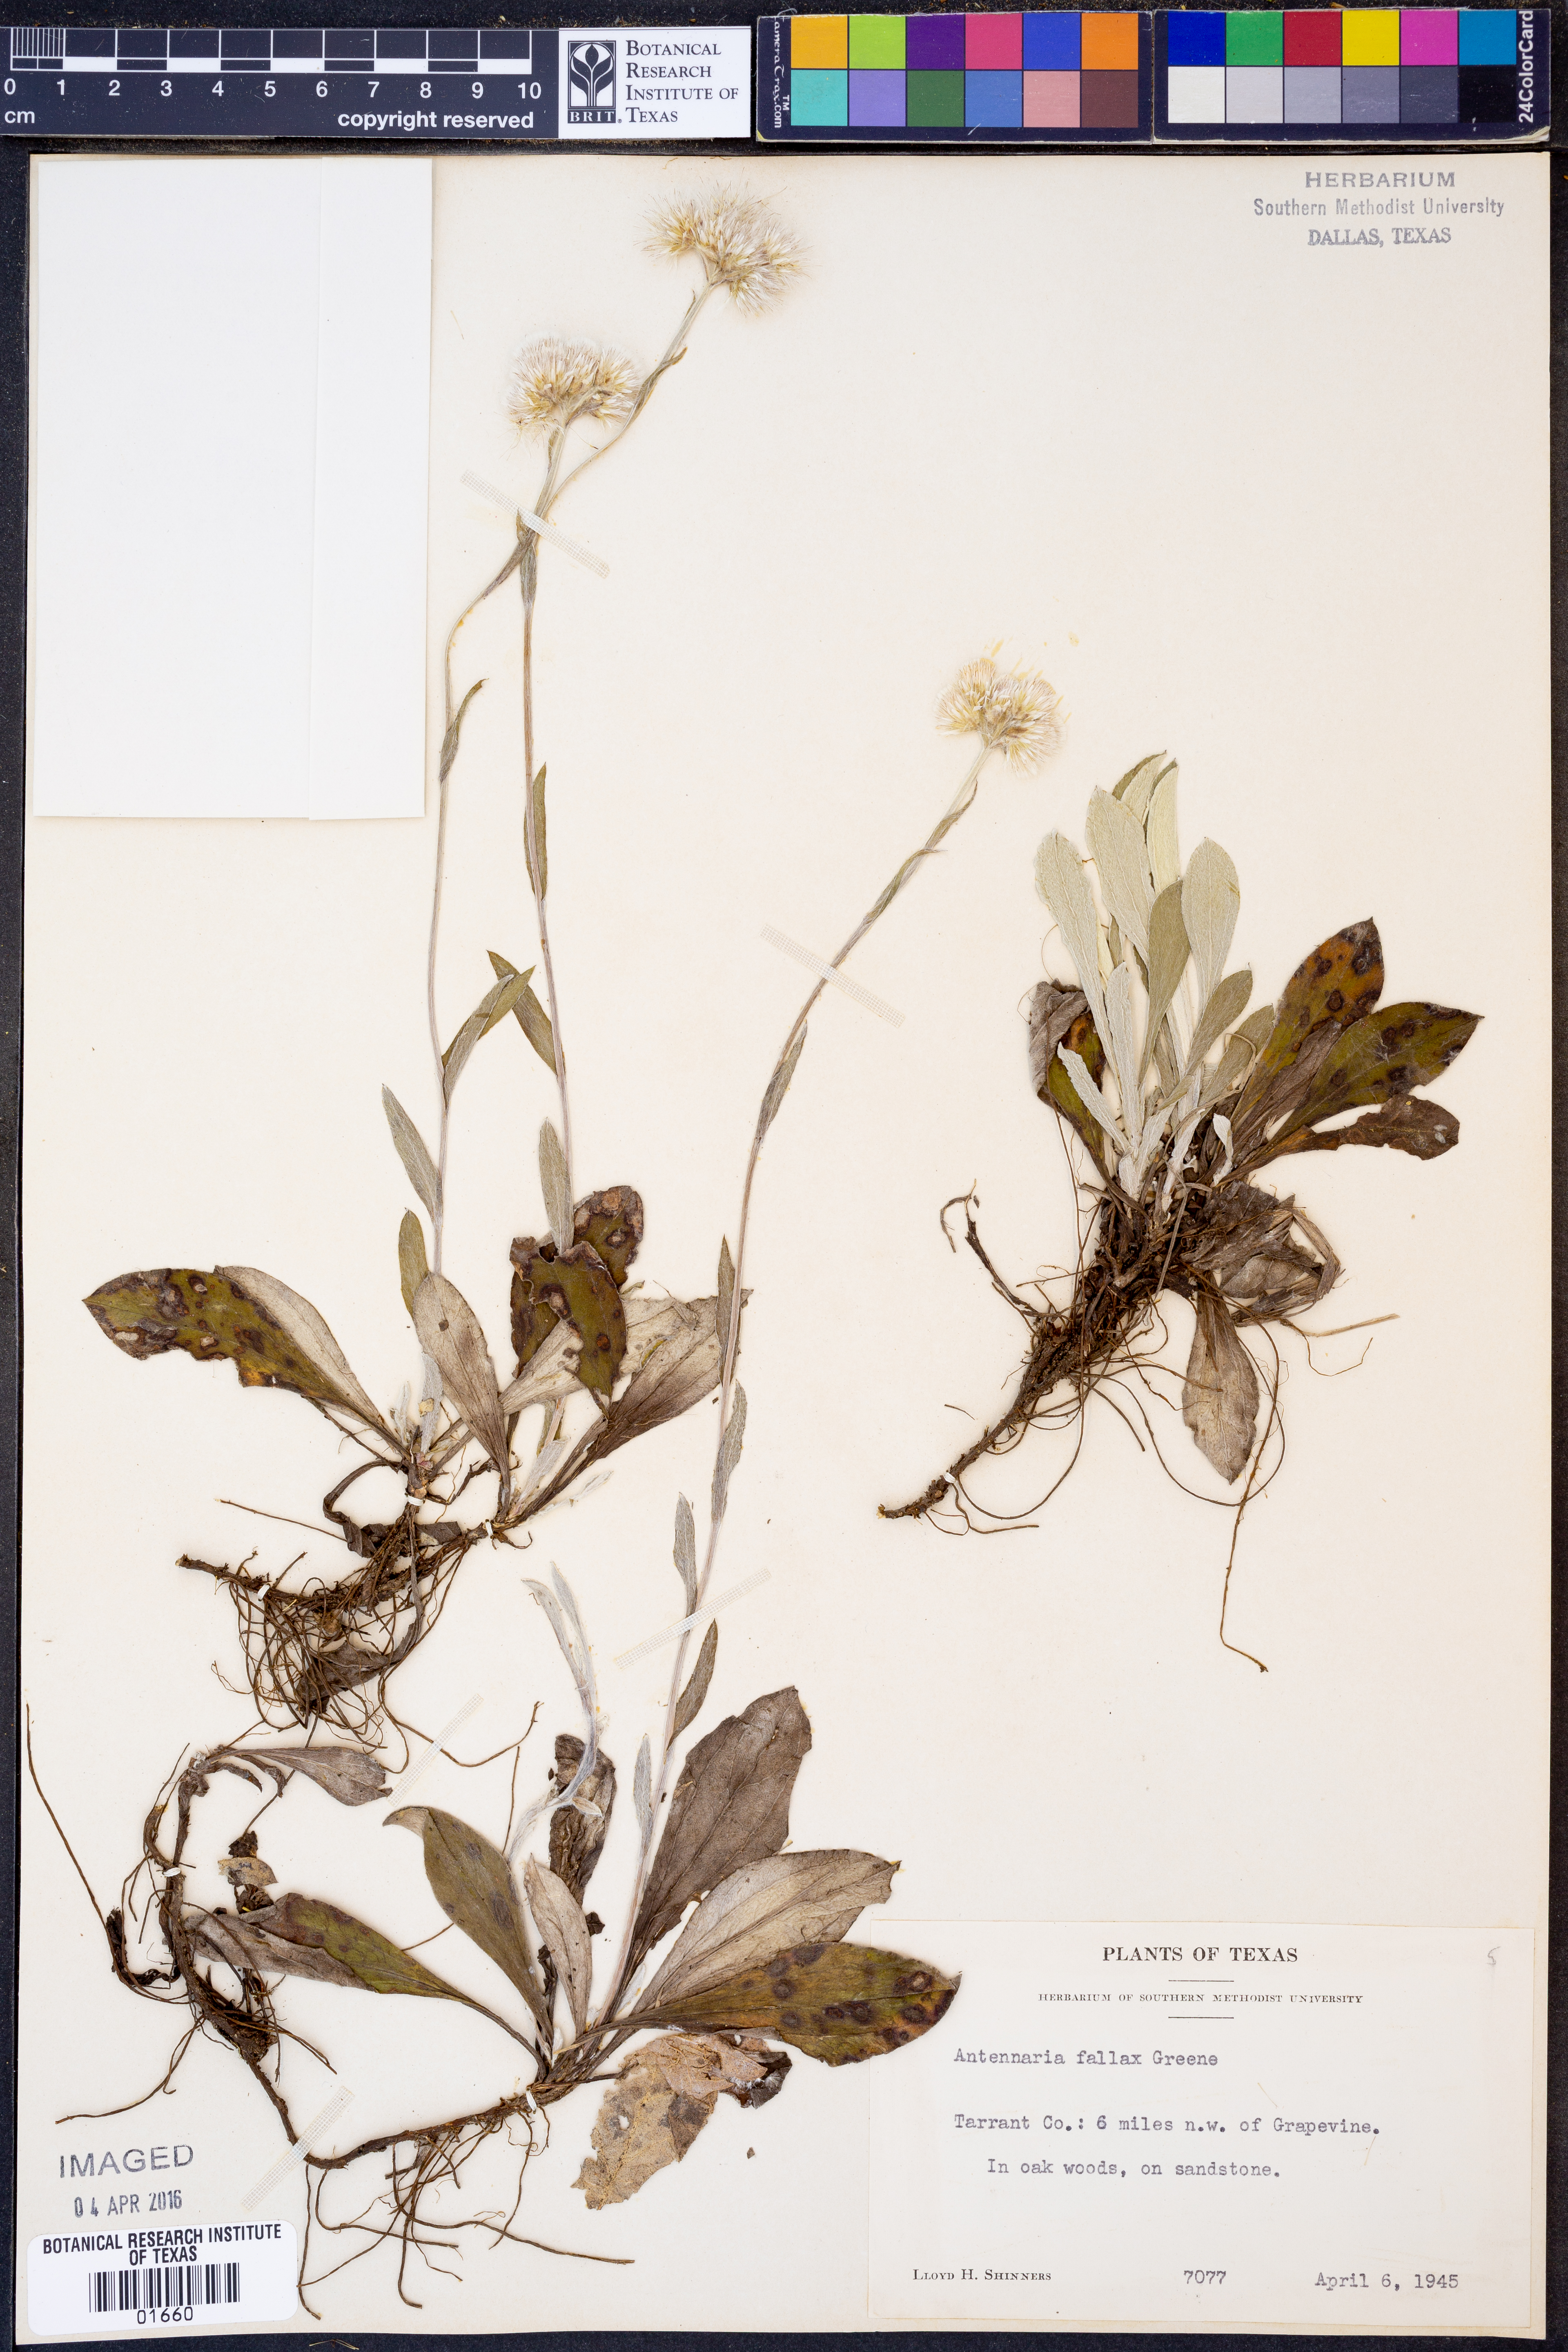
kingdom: Plantae
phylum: Tracheophyta
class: Magnoliopsida
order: Asterales
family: Asteraceae
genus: Antennaria
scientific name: Antennaria parlinii
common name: Parlin's pussytoes
